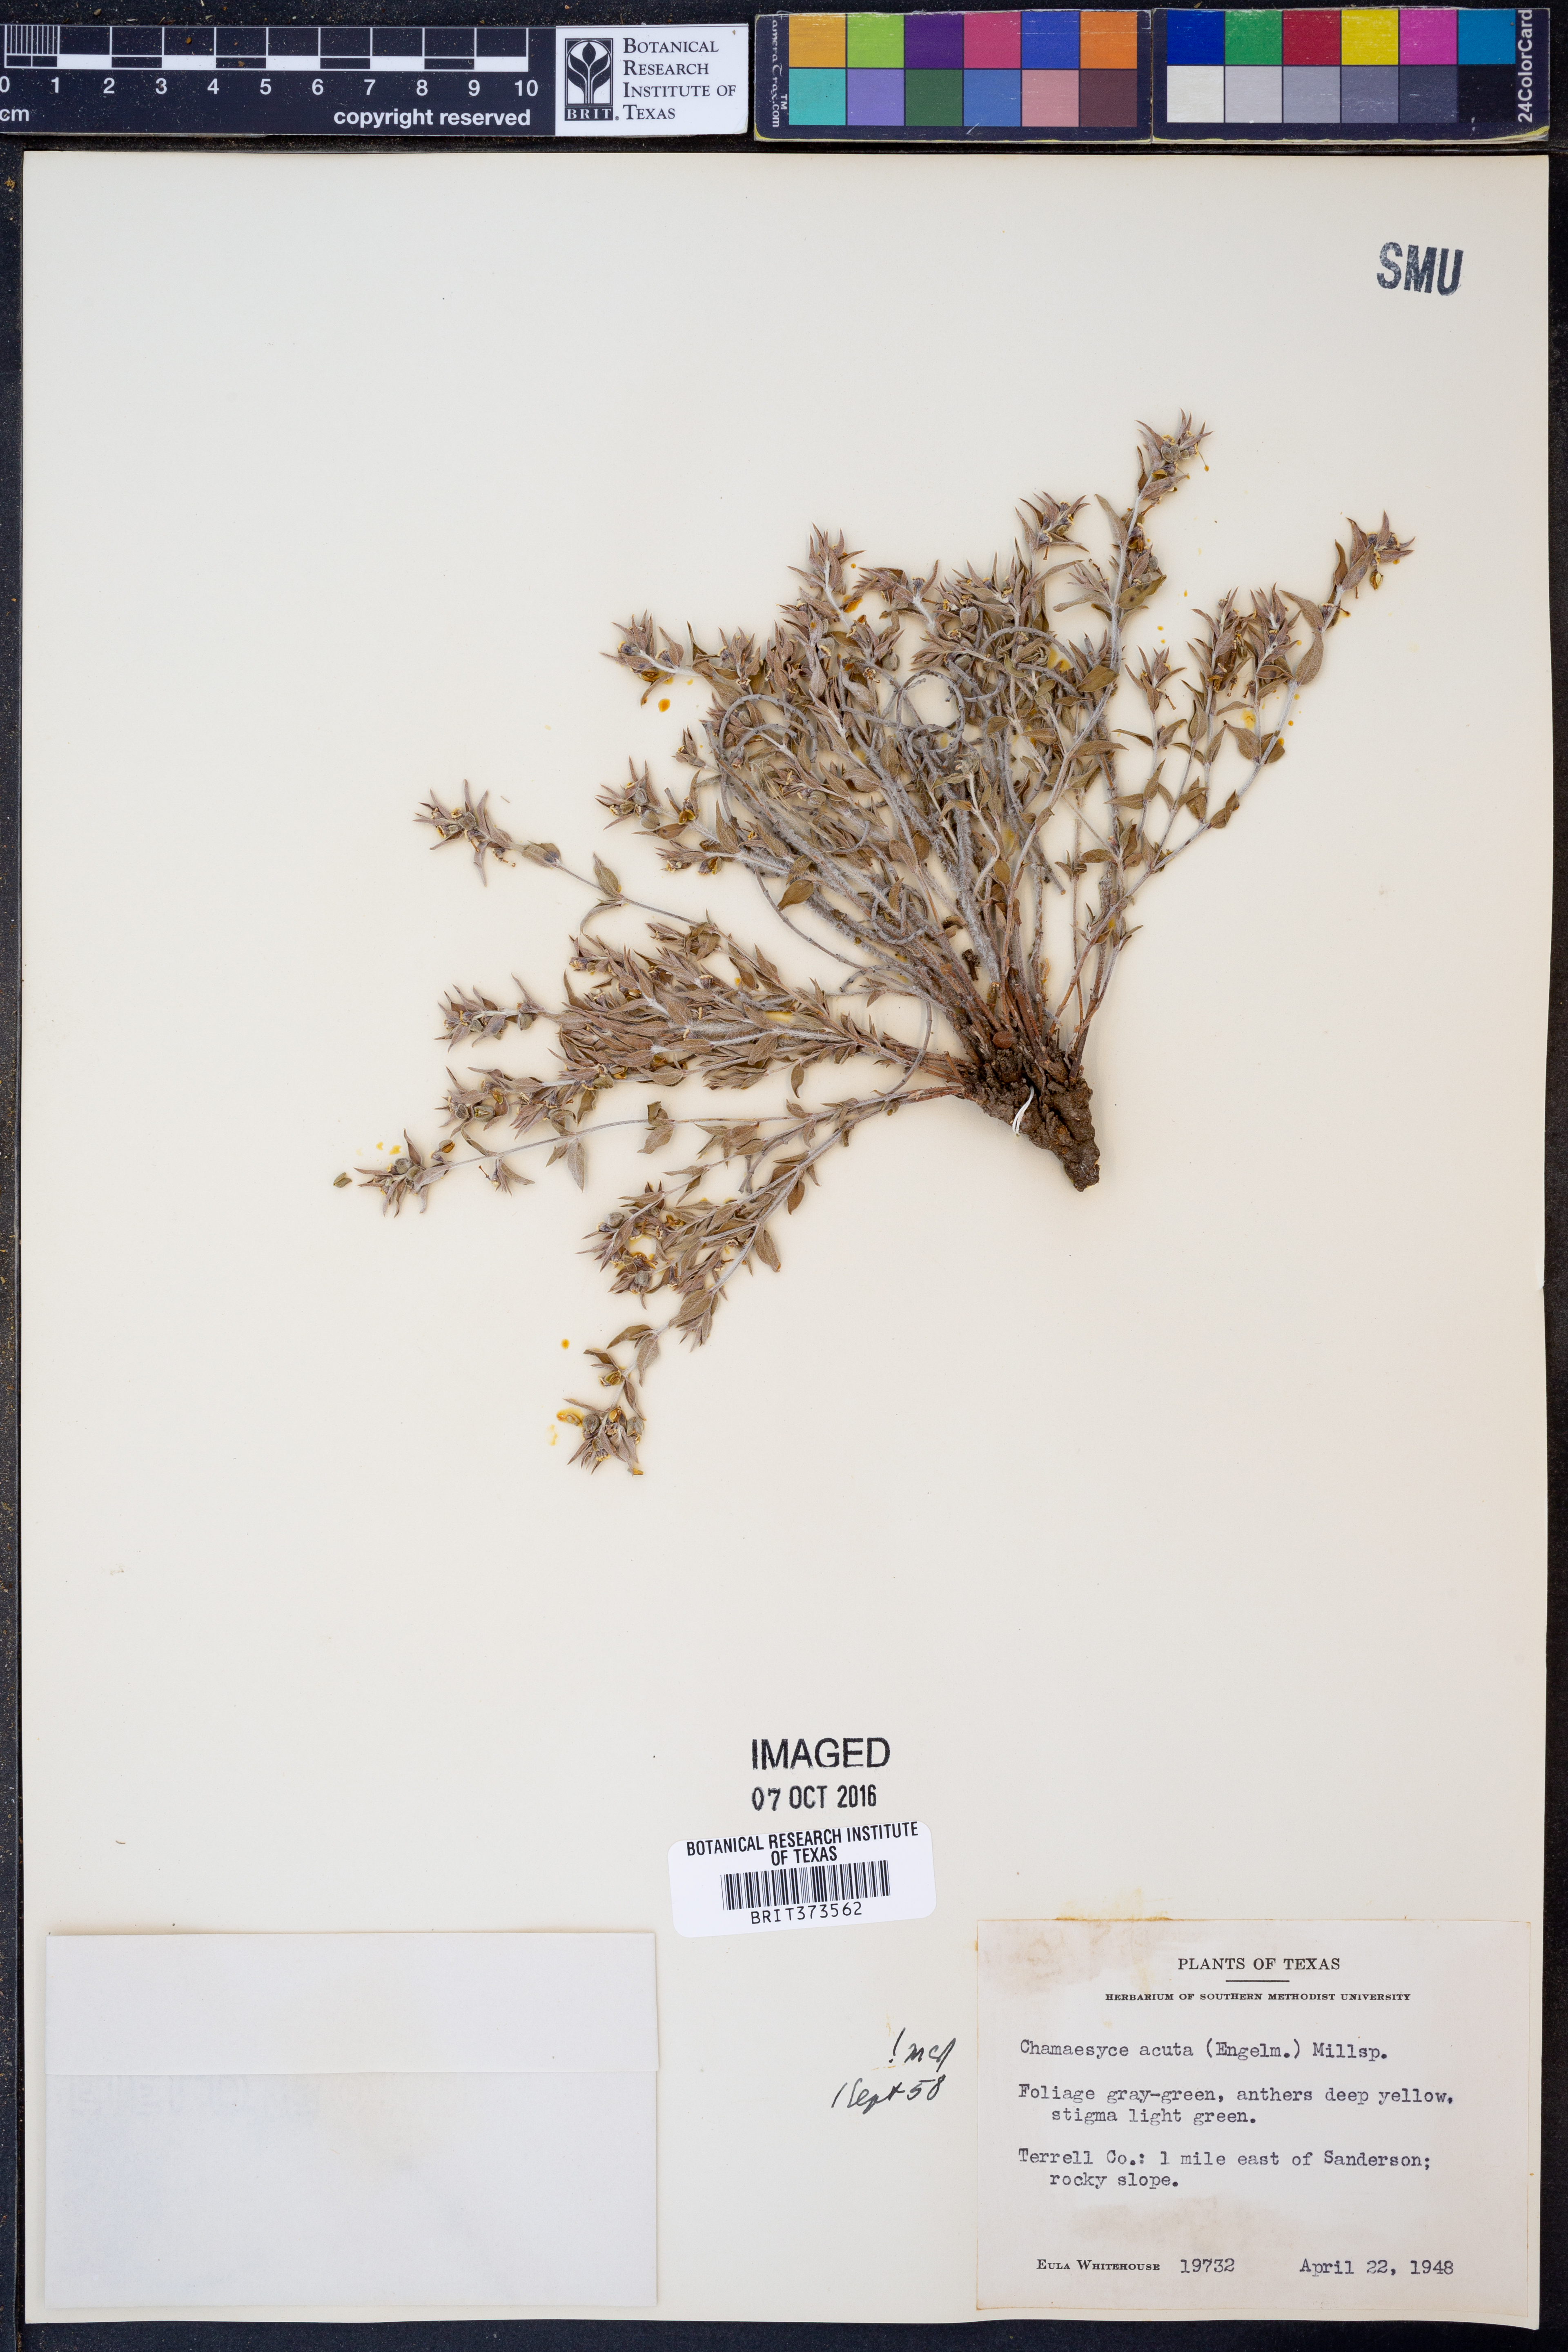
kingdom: Plantae
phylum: Tracheophyta
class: Magnoliopsida
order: Malpighiales
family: Euphorbiaceae
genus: Euphorbia
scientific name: Euphorbia acuta
